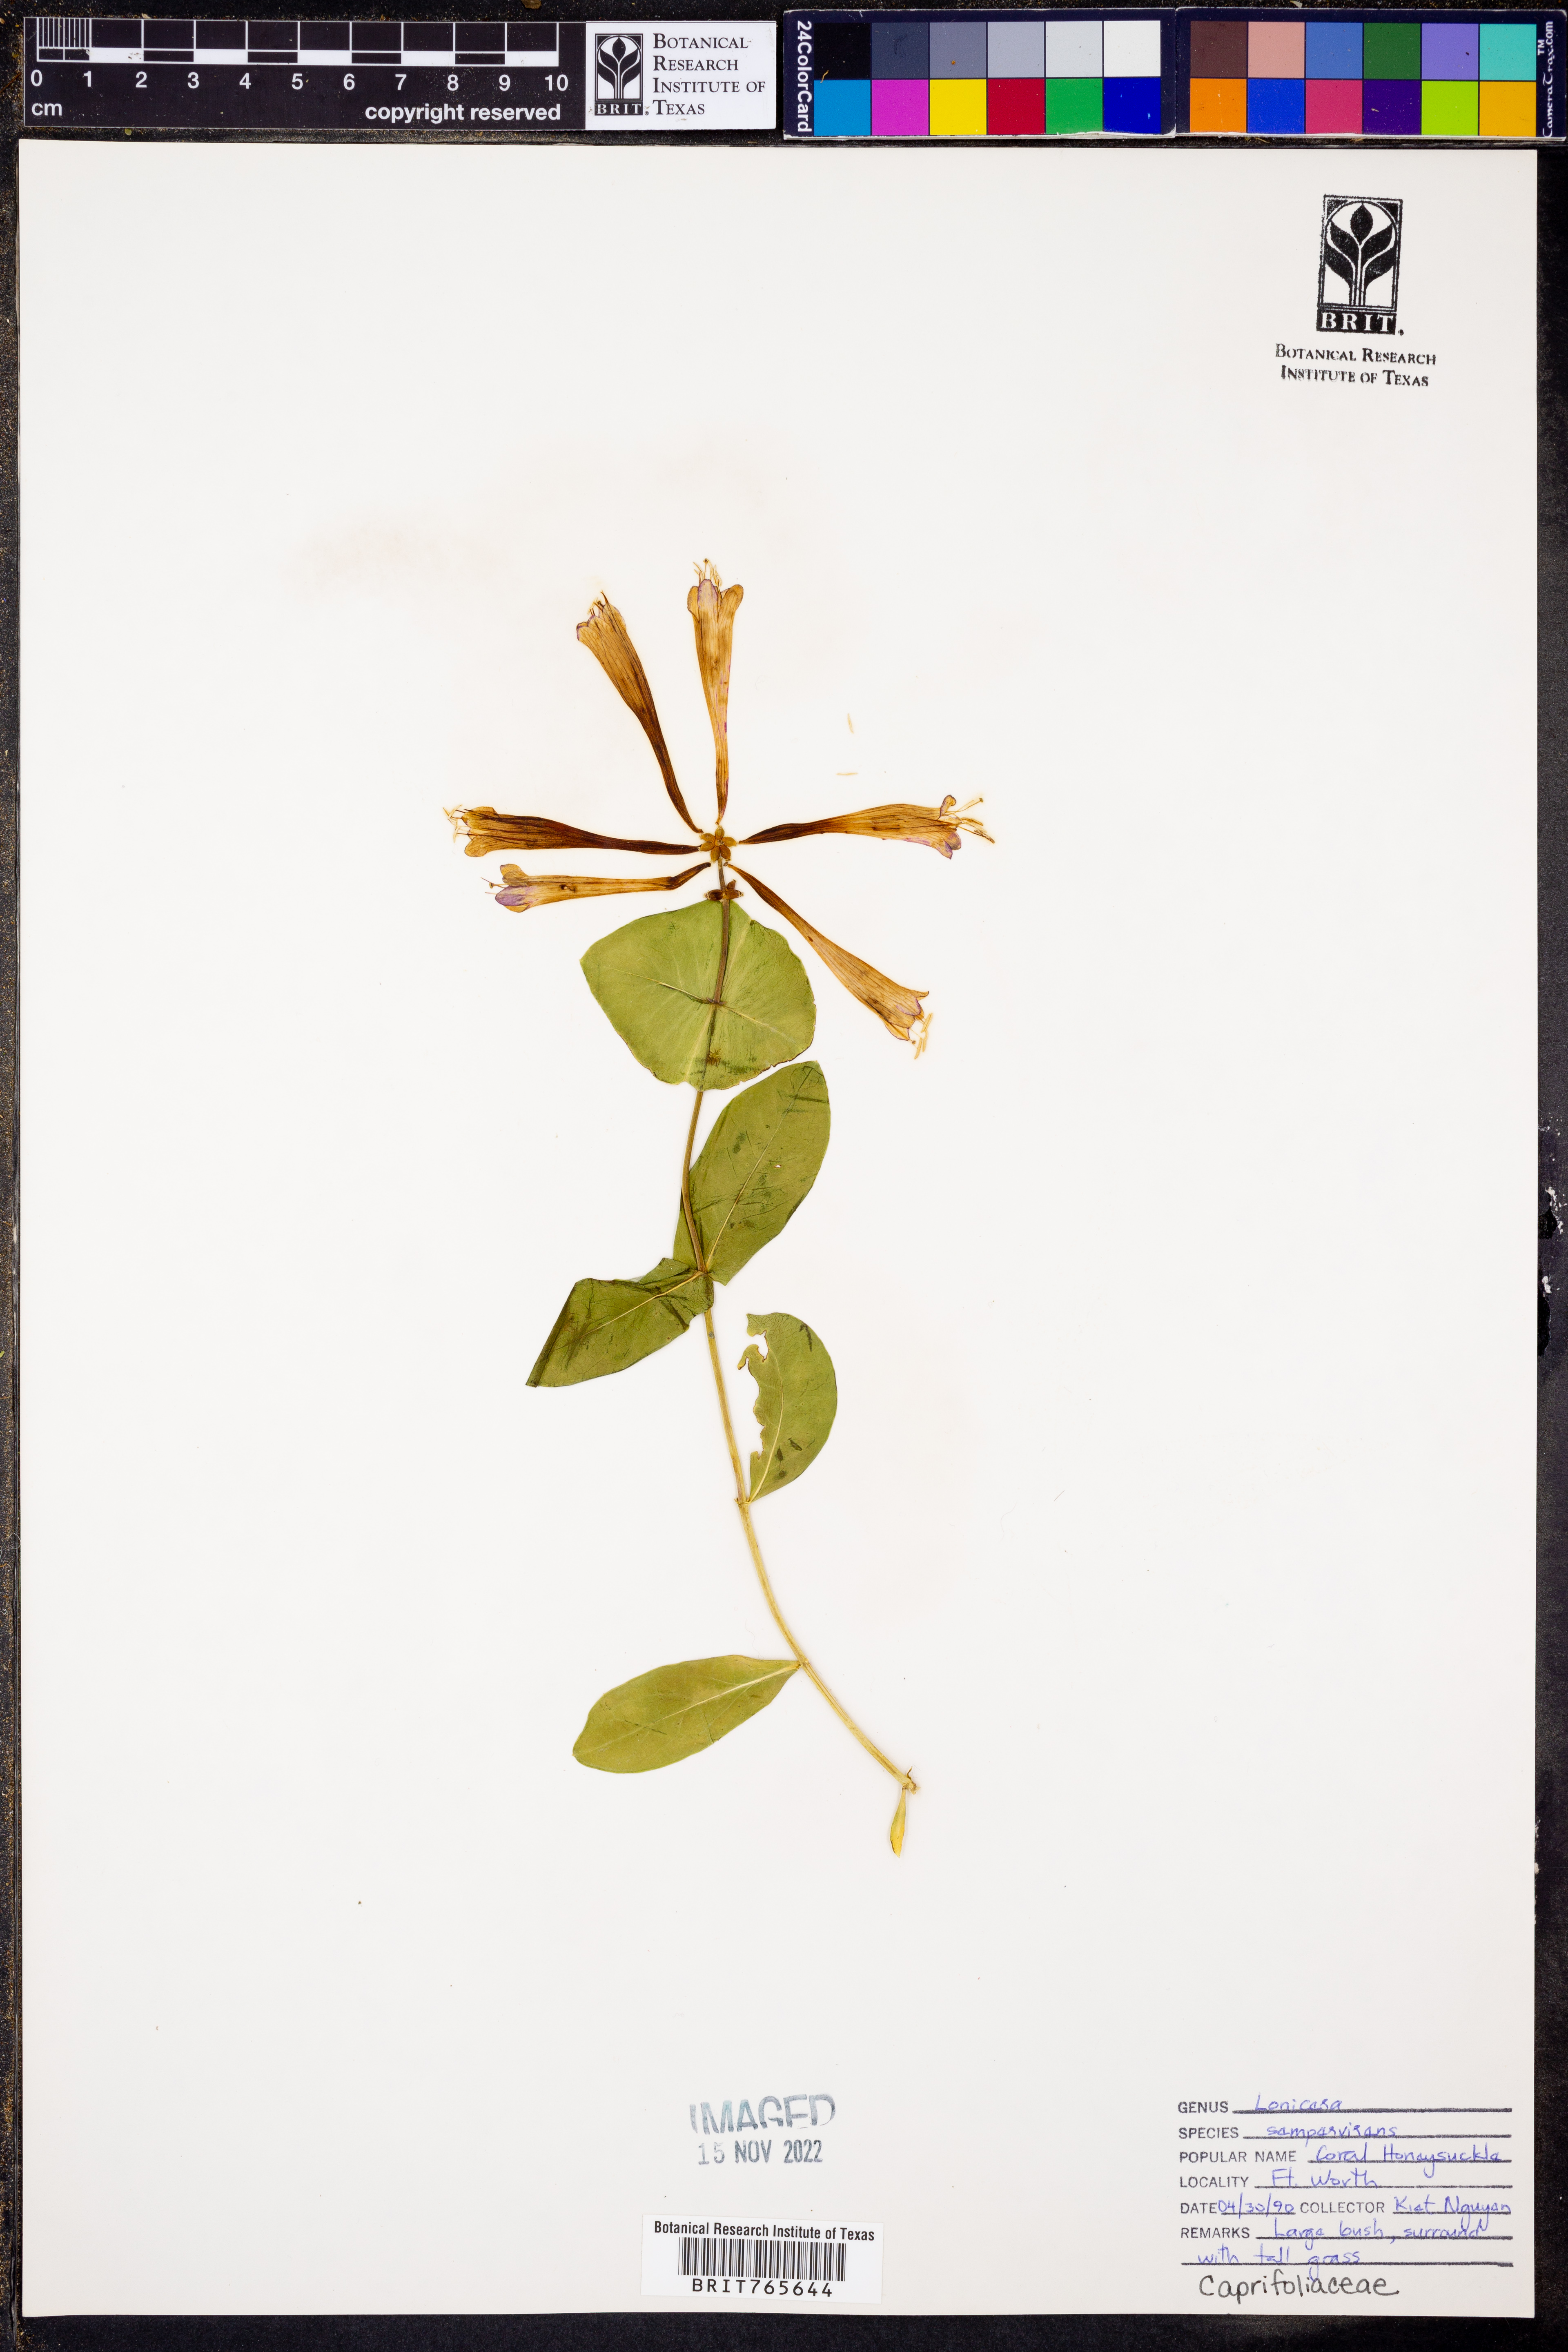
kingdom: Plantae
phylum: Tracheophyta
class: Magnoliopsida
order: Dipsacales
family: Caprifoliaceae
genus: Lonicera
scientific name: Lonicera sempervirens
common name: Coral honeysuckle
